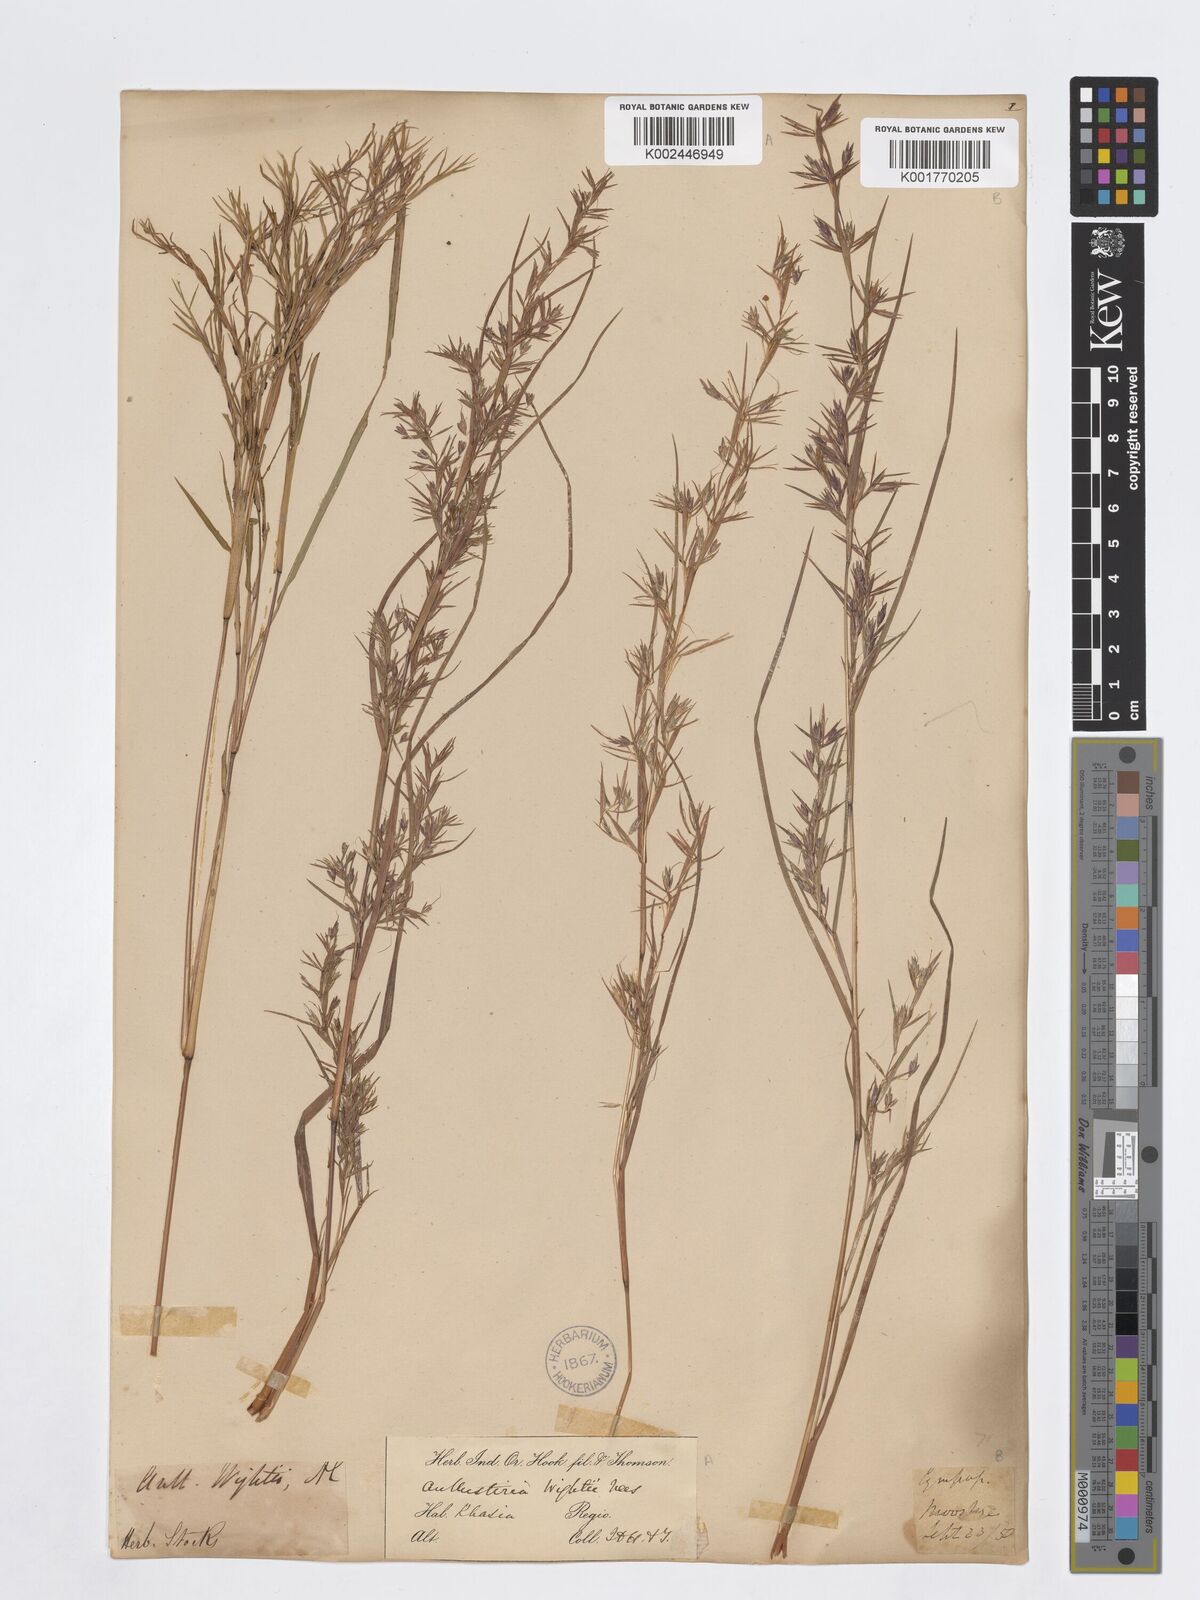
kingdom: Plantae
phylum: Tracheophyta
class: Liliopsida
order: Poales
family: Poaceae
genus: Iseilema
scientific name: Iseilema prostratum
